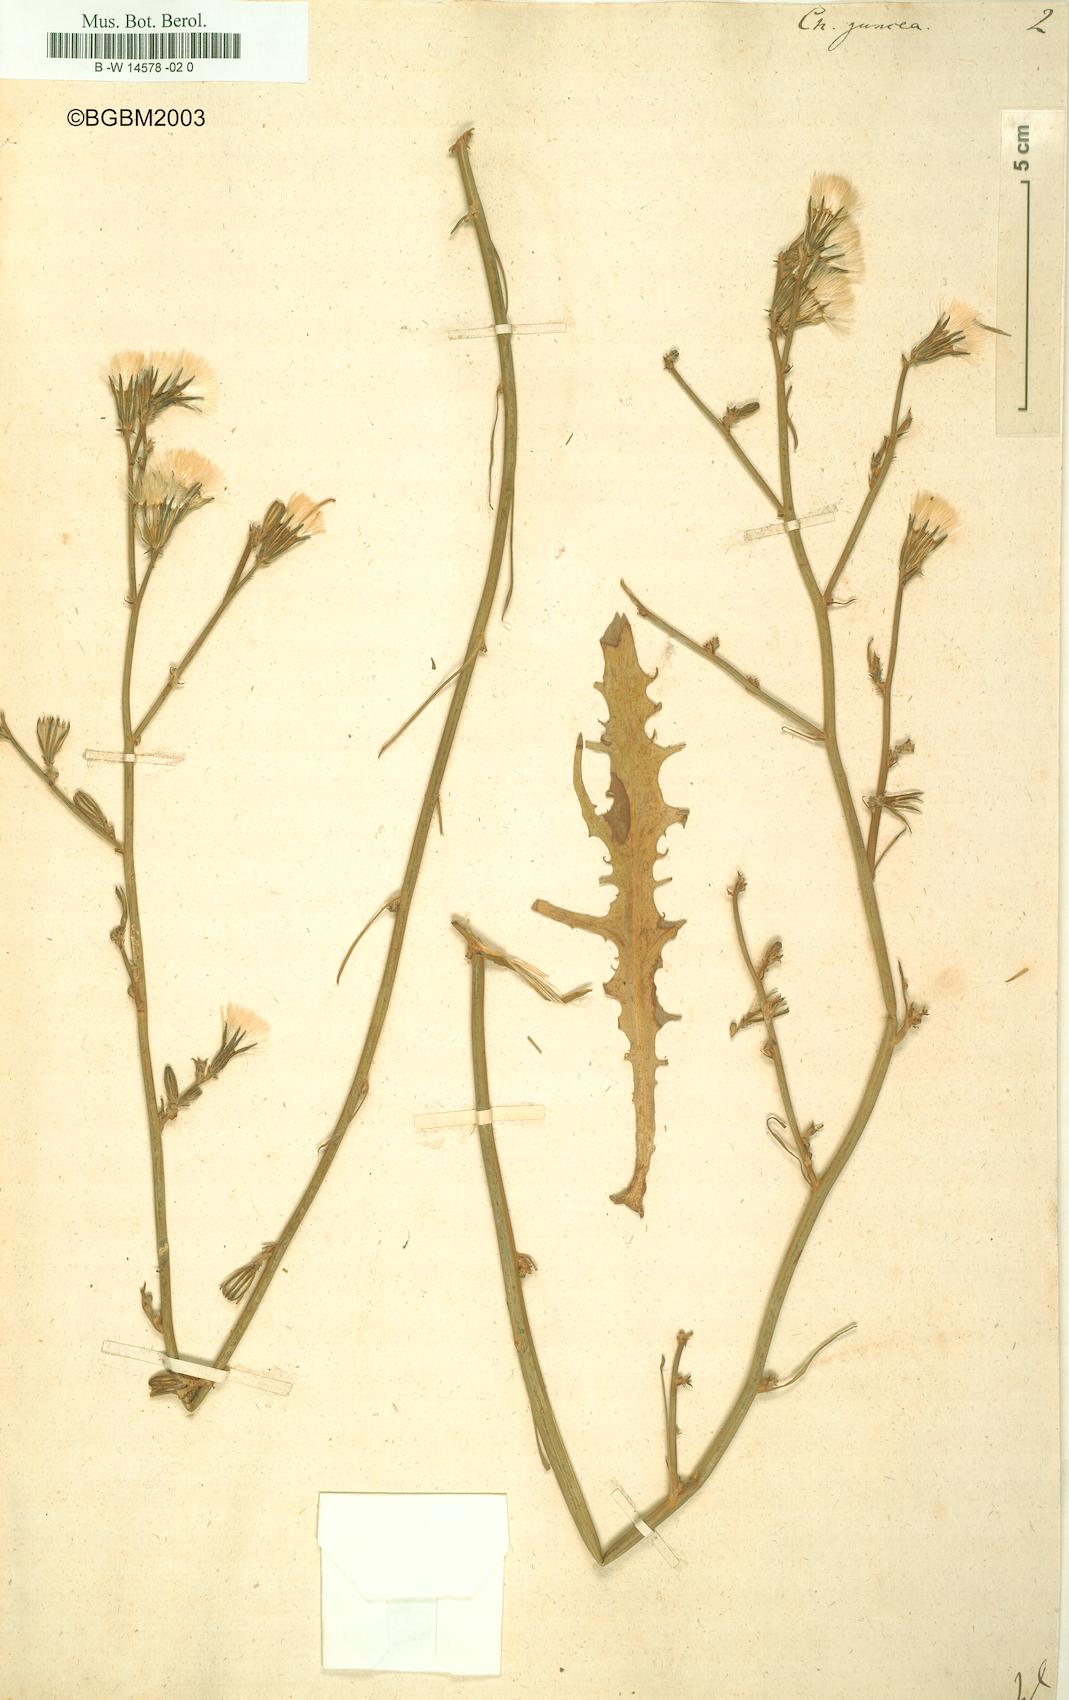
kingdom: Plantae
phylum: Tracheophyta
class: Magnoliopsida
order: Asterales
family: Asteraceae
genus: Chondrilla
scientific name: Chondrilla juncea
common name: Skeleton weed
